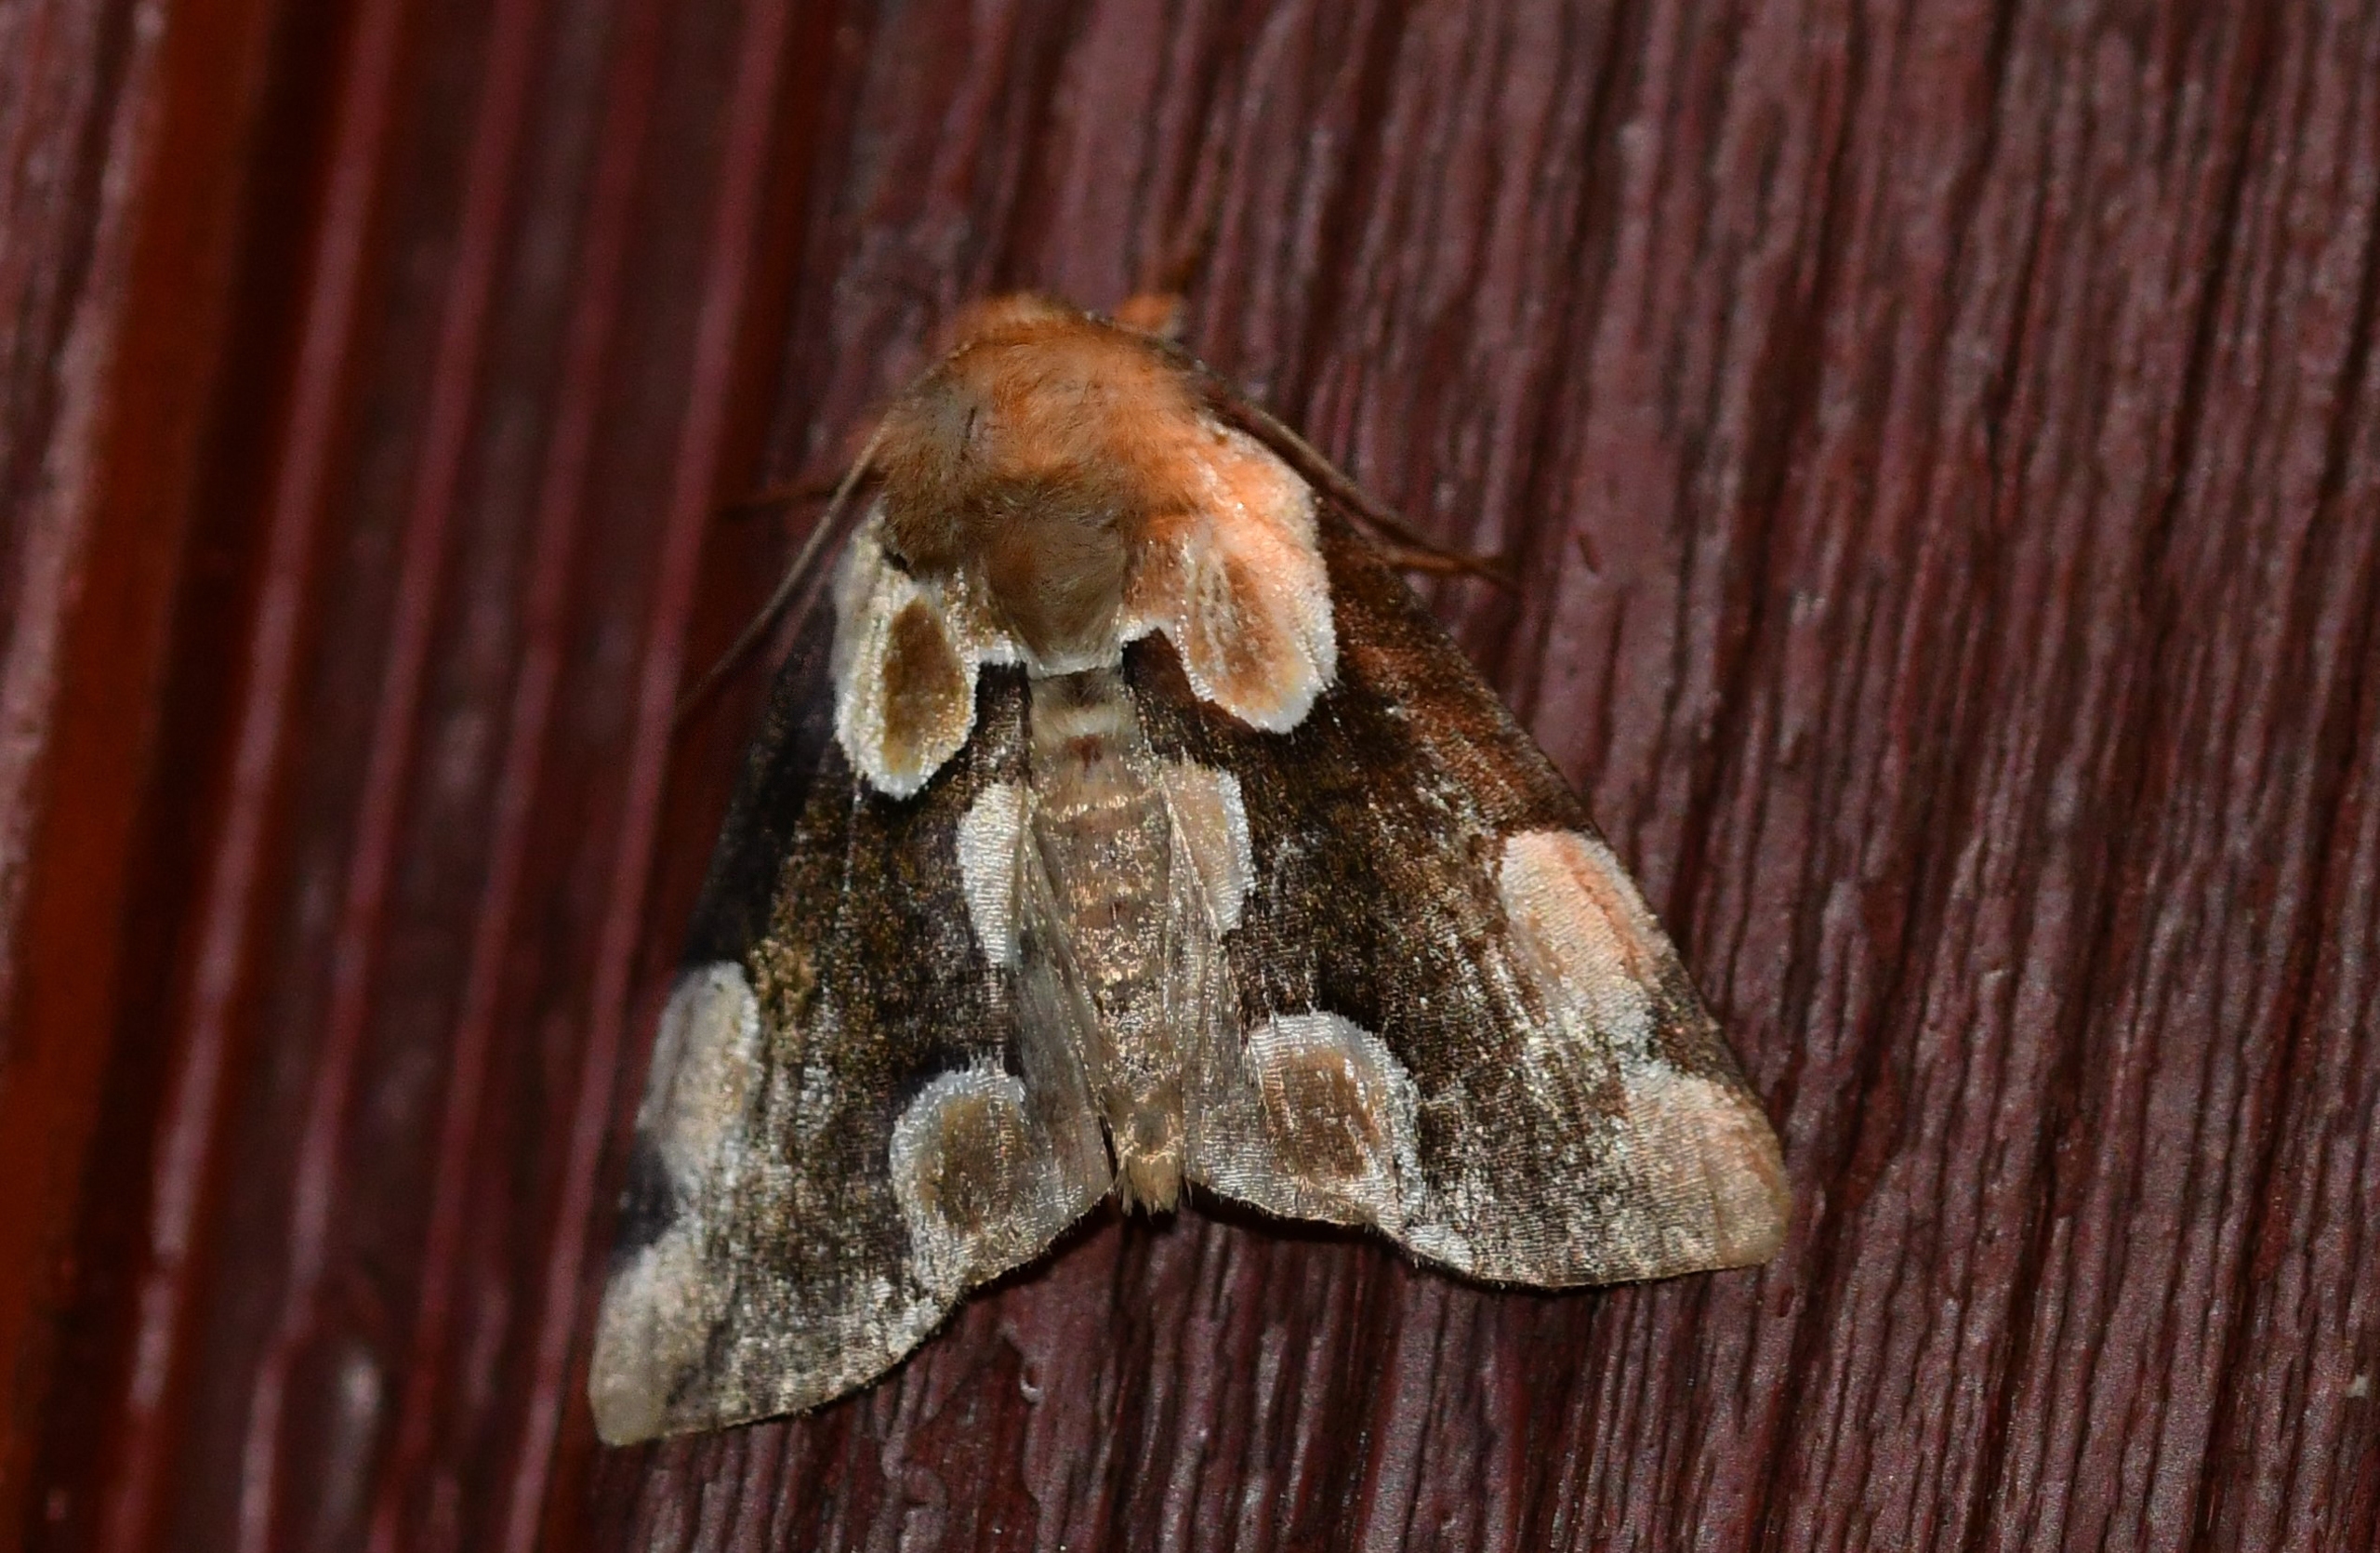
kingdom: Animalia
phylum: Arthropoda
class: Insecta
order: Lepidoptera
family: Drepanidae
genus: Thyatira
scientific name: Thyatira batis
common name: Rosenplet
